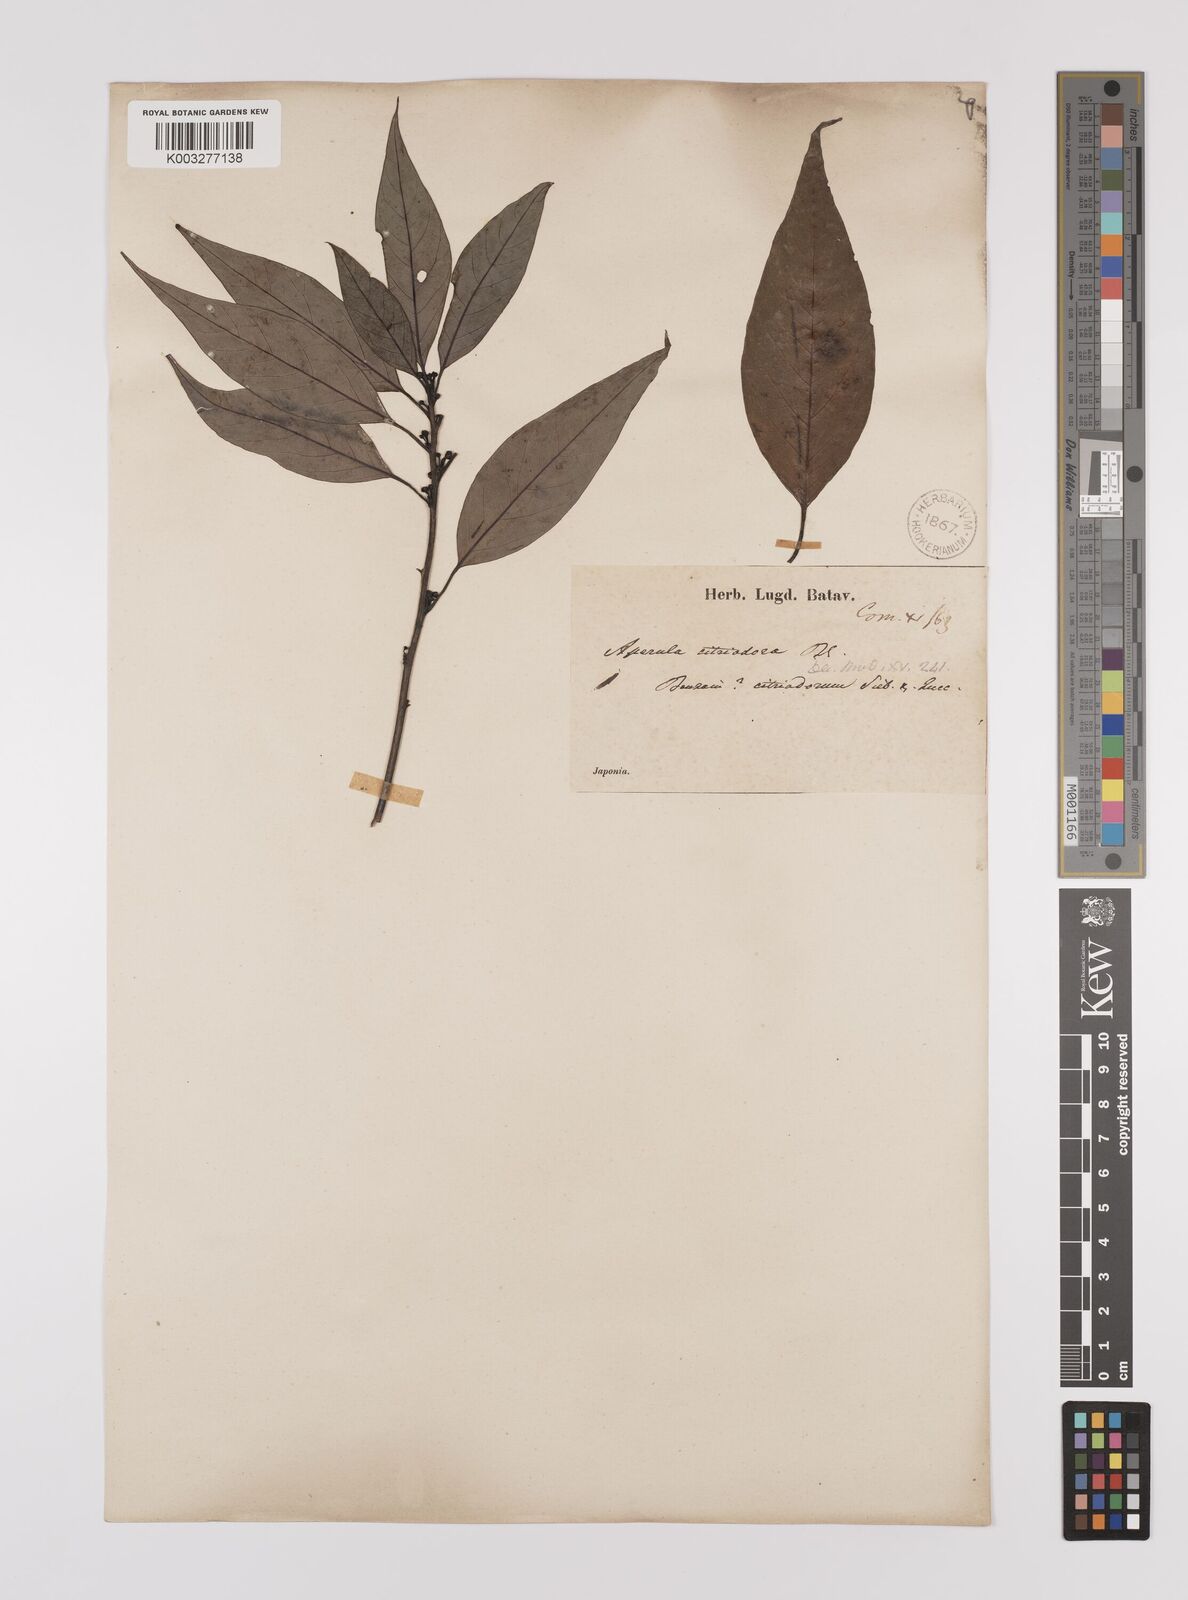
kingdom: Plantae
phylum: Tracheophyta
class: Magnoliopsida
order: Laurales
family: Lauraceae
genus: Litsea
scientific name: Litsea cubeba
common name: Mountain-pepper
